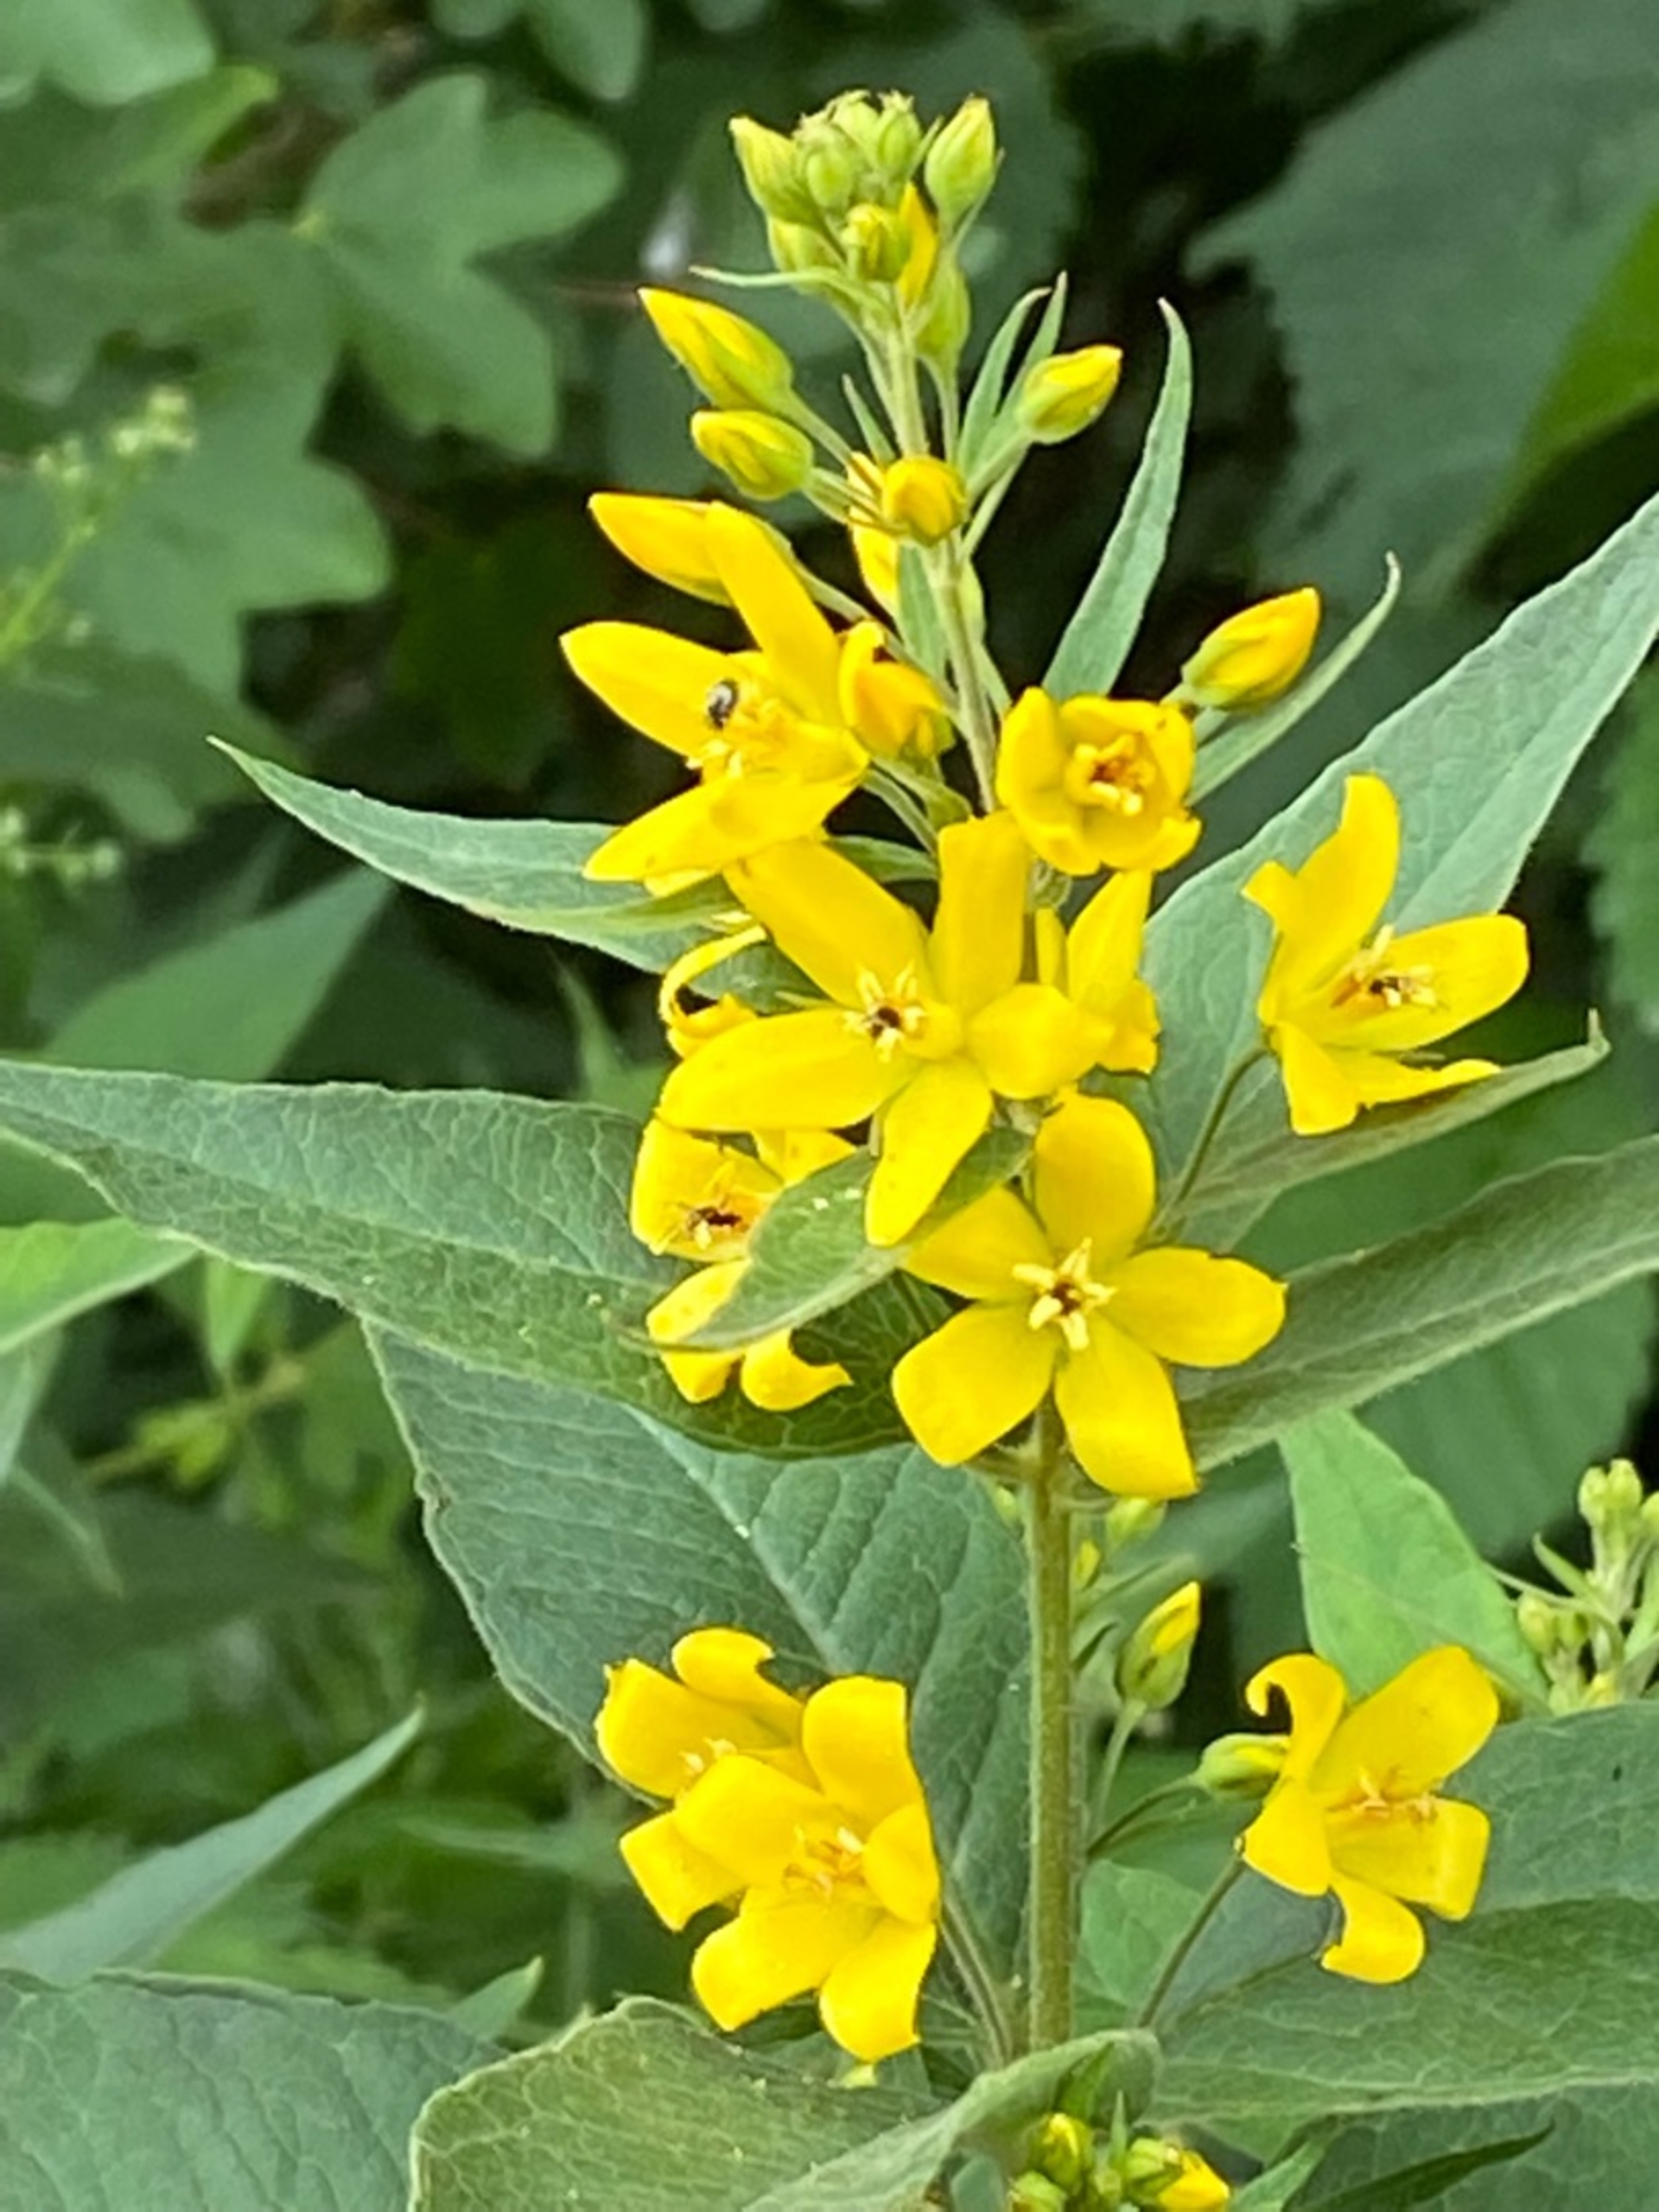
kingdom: Plantae
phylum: Tracheophyta
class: Magnoliopsida
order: Ericales
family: Primulaceae
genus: Lysimachia
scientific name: Lysimachia vulgaris
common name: Almindelig fredløs
